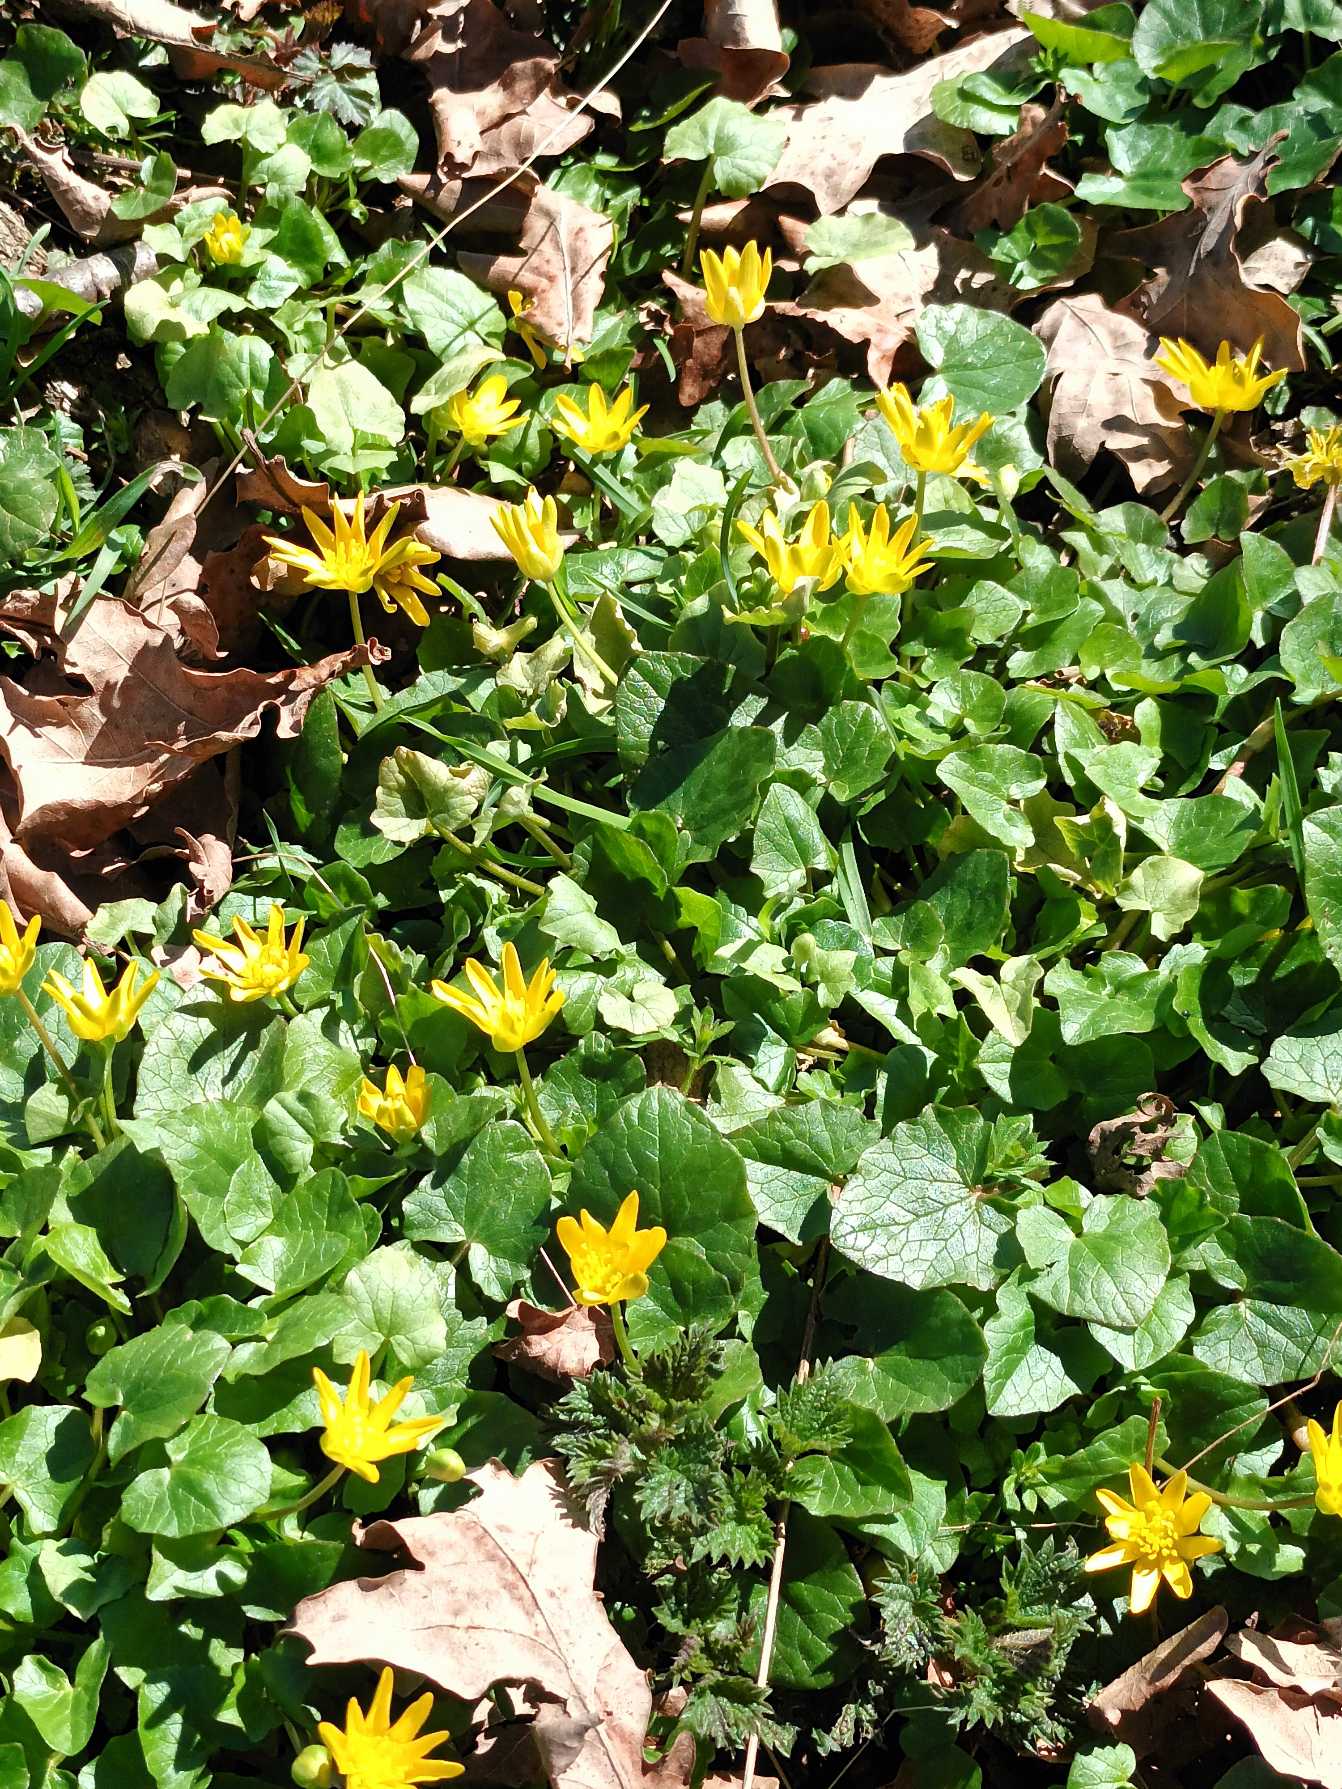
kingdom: Plantae
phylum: Tracheophyta
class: Magnoliopsida
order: Ranunculales
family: Ranunculaceae
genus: Ficaria
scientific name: Ficaria verna
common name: Vorterod
